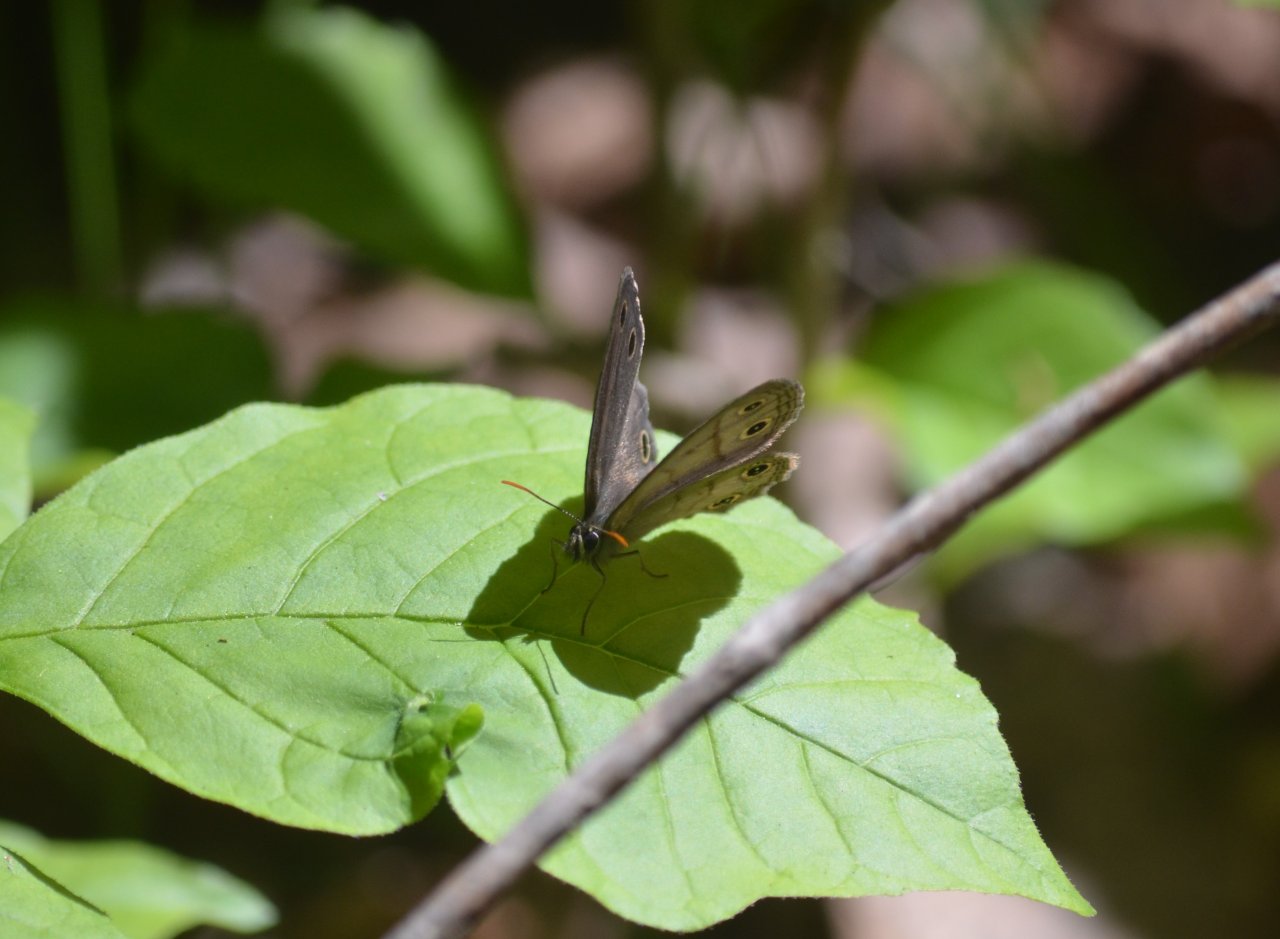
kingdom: Animalia
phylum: Arthropoda
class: Insecta
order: Lepidoptera
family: Nymphalidae
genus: Euptychia
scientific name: Euptychia cymela
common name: Little Wood Satyr
